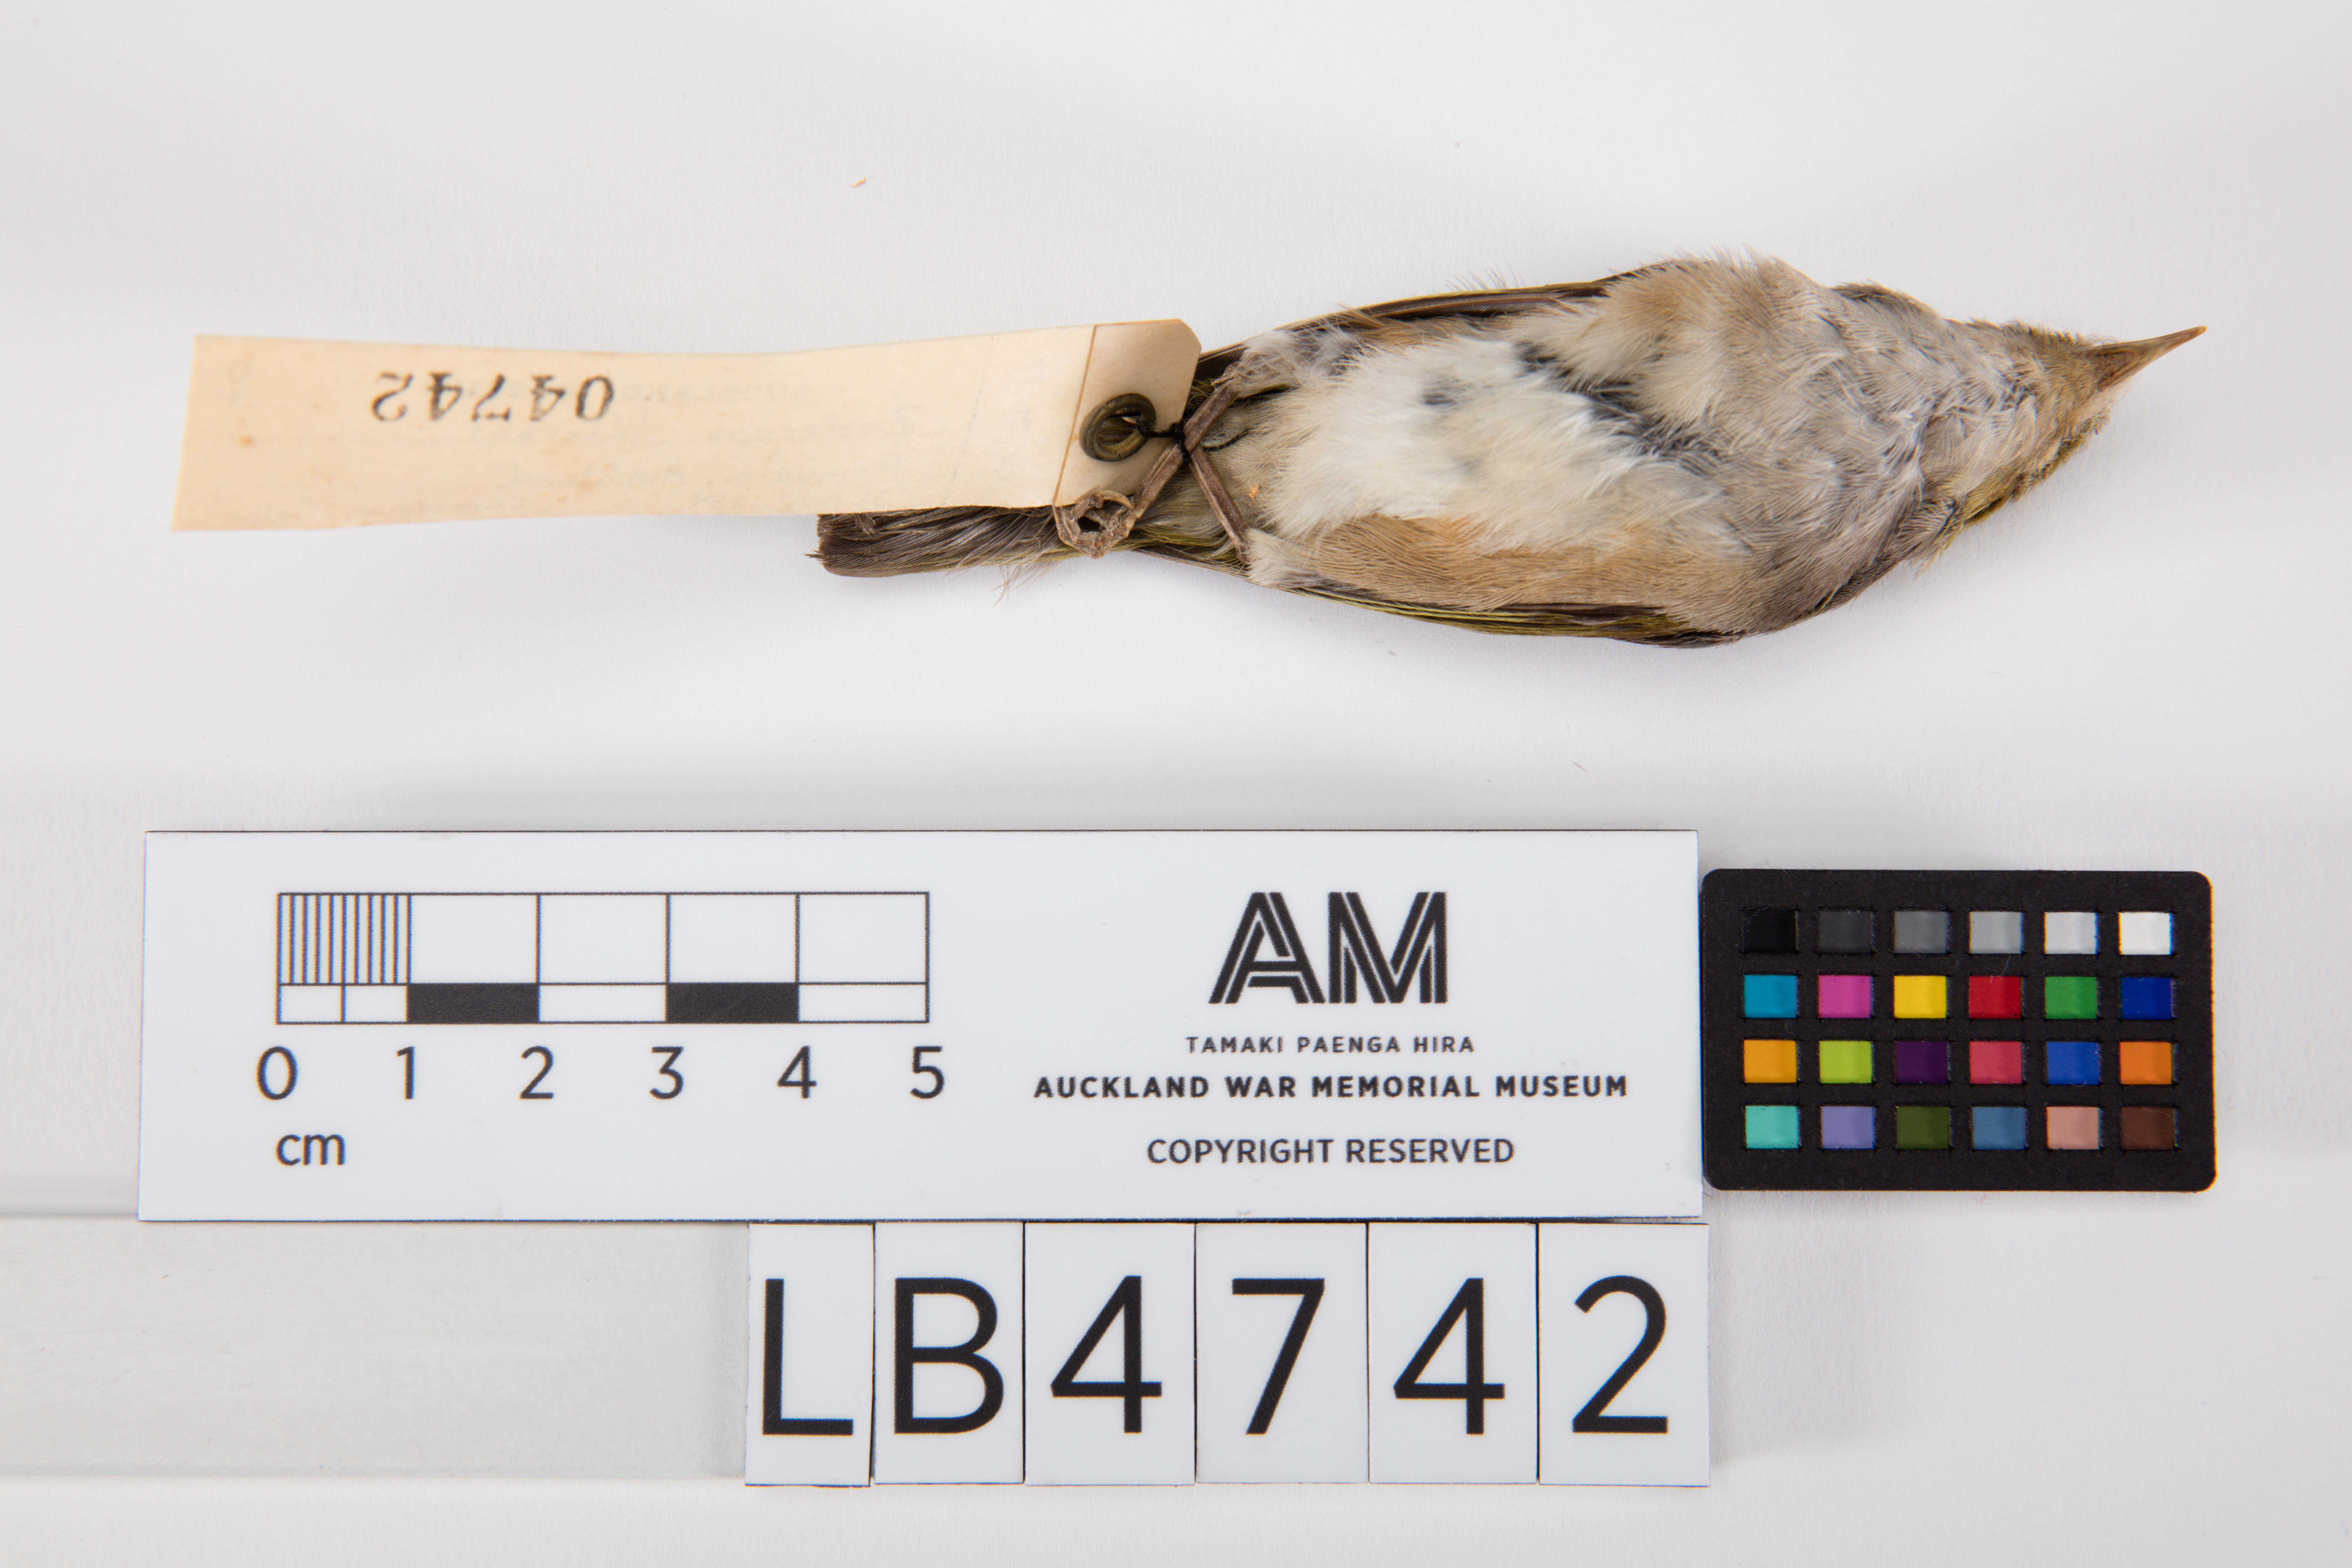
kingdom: Animalia
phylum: Chordata
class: Aves
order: Passeriformes
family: Zosteropidae
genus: Zosterops
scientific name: Zosterops lateralis
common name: Silvereye
